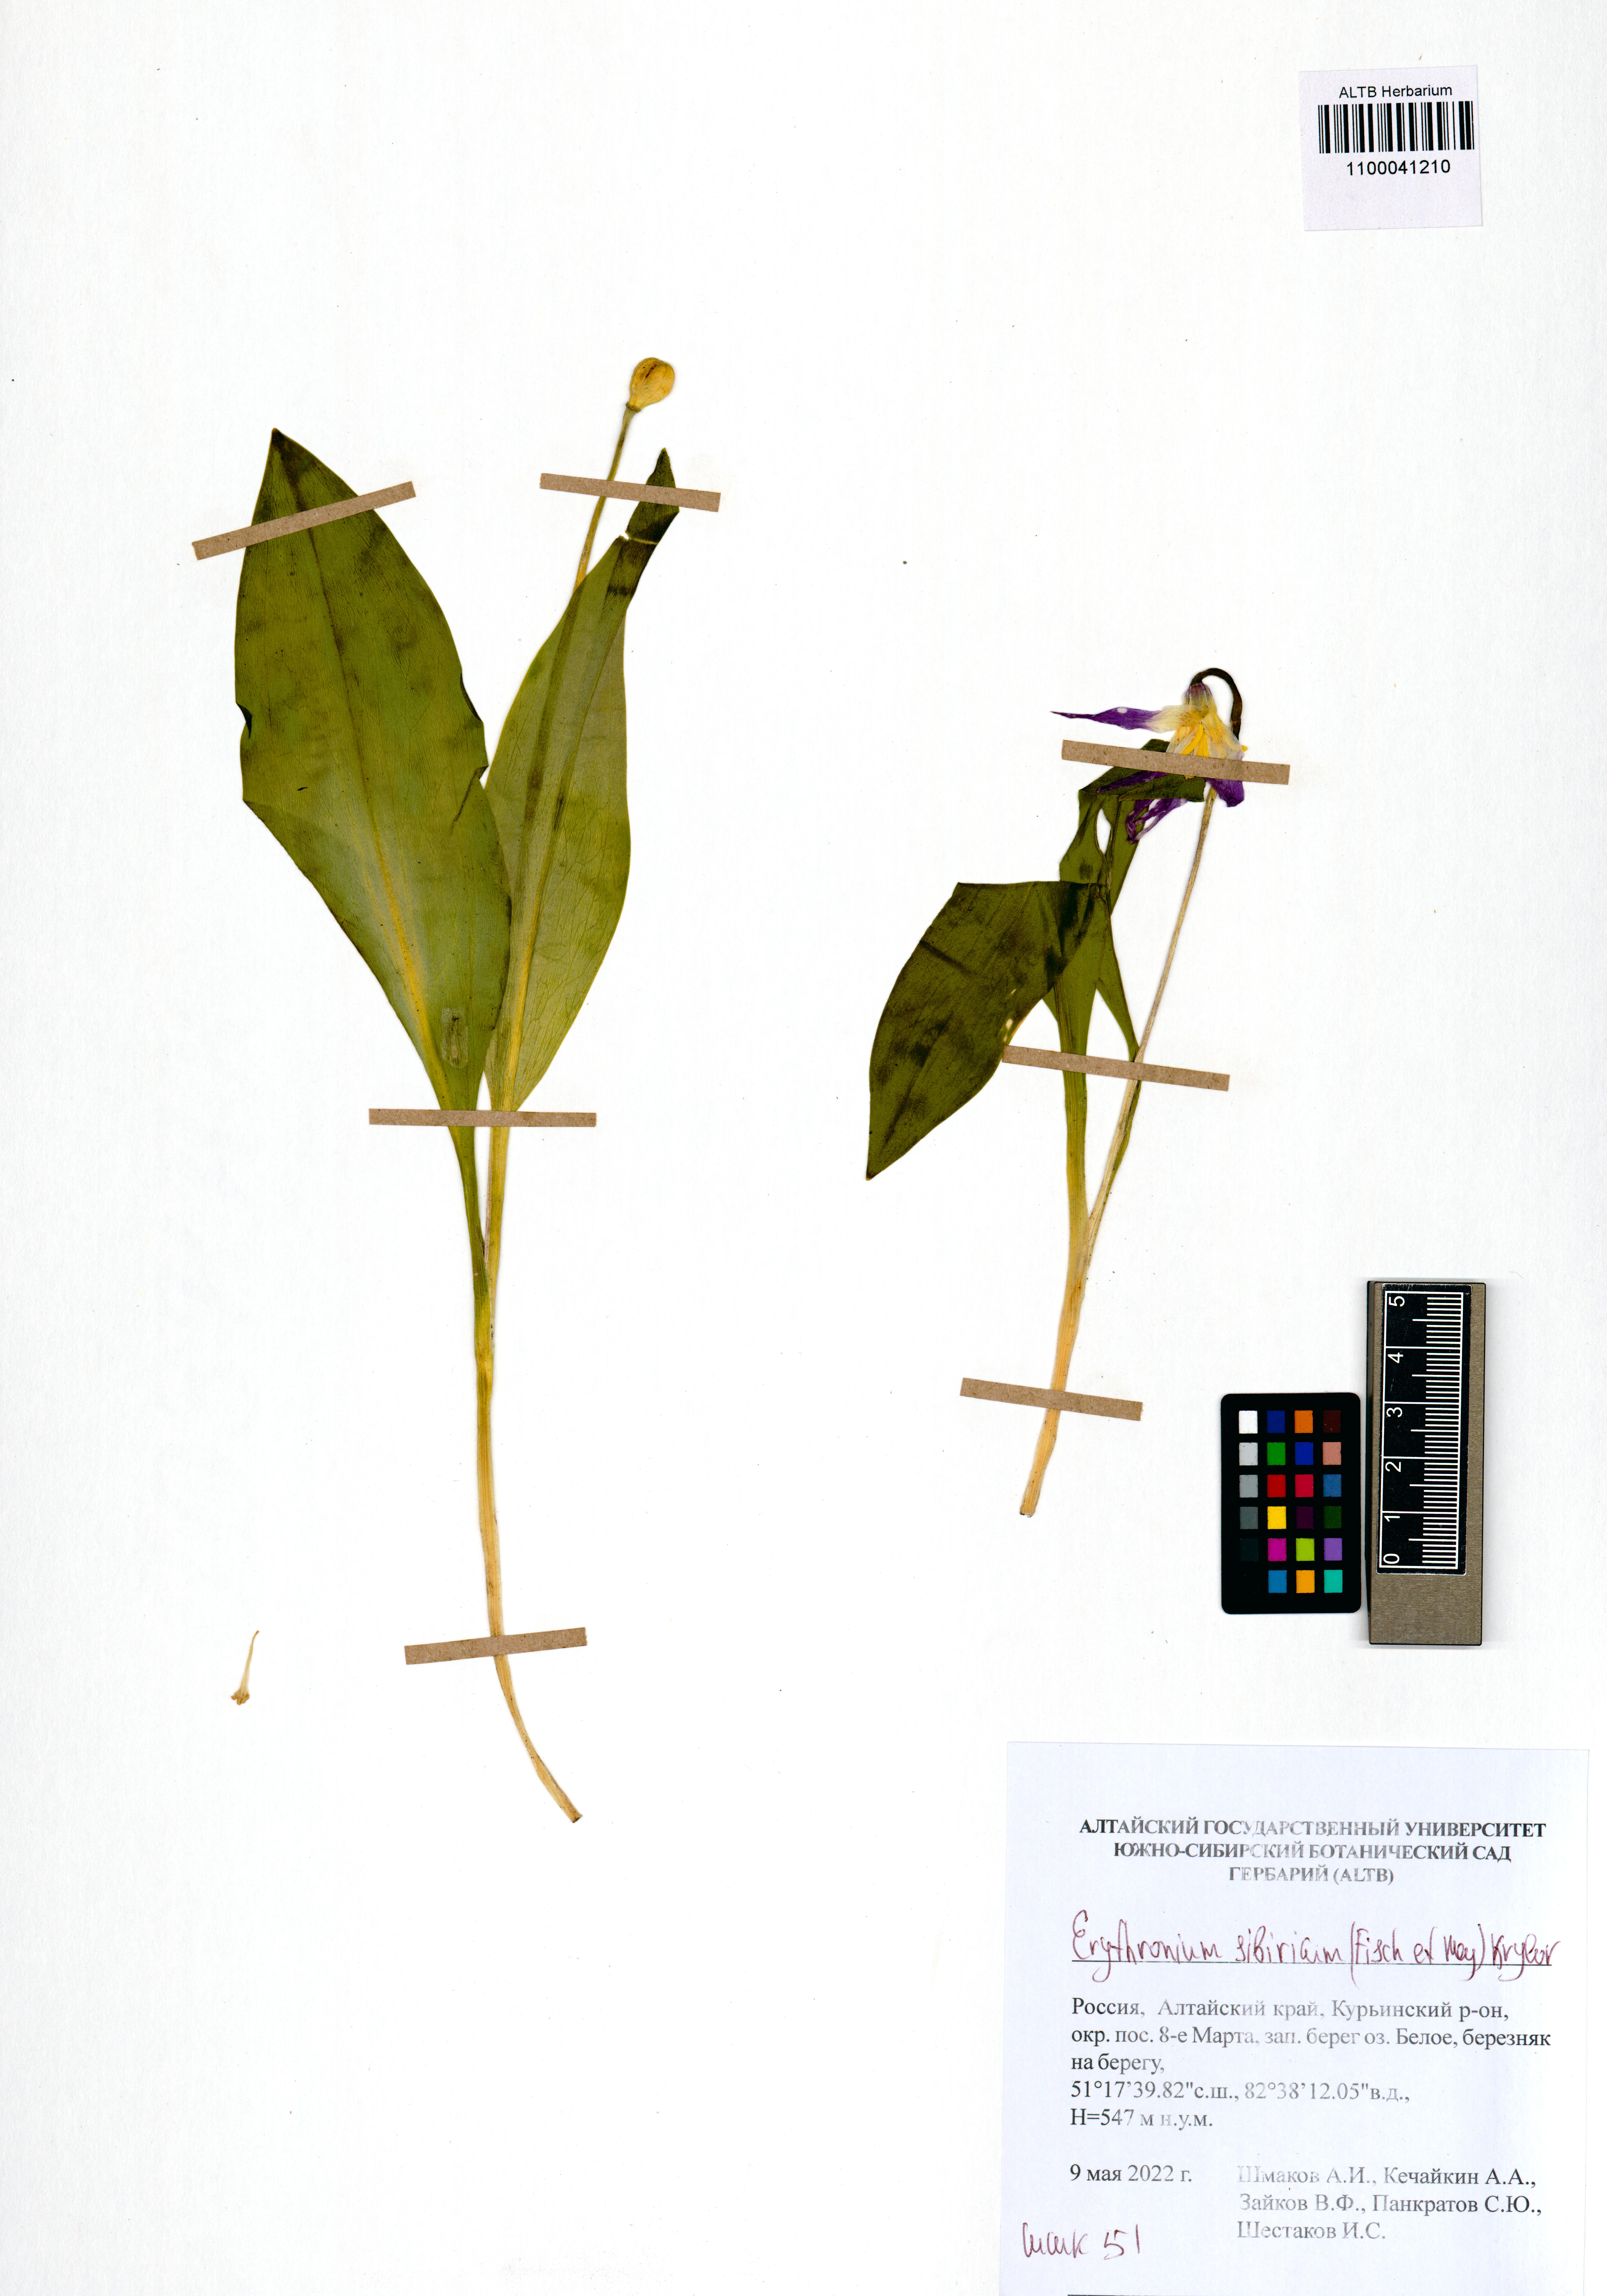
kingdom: Plantae
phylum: Tracheophyta
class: Liliopsida
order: Liliales
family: Liliaceae
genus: Erythronium
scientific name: Erythronium sibiricum
